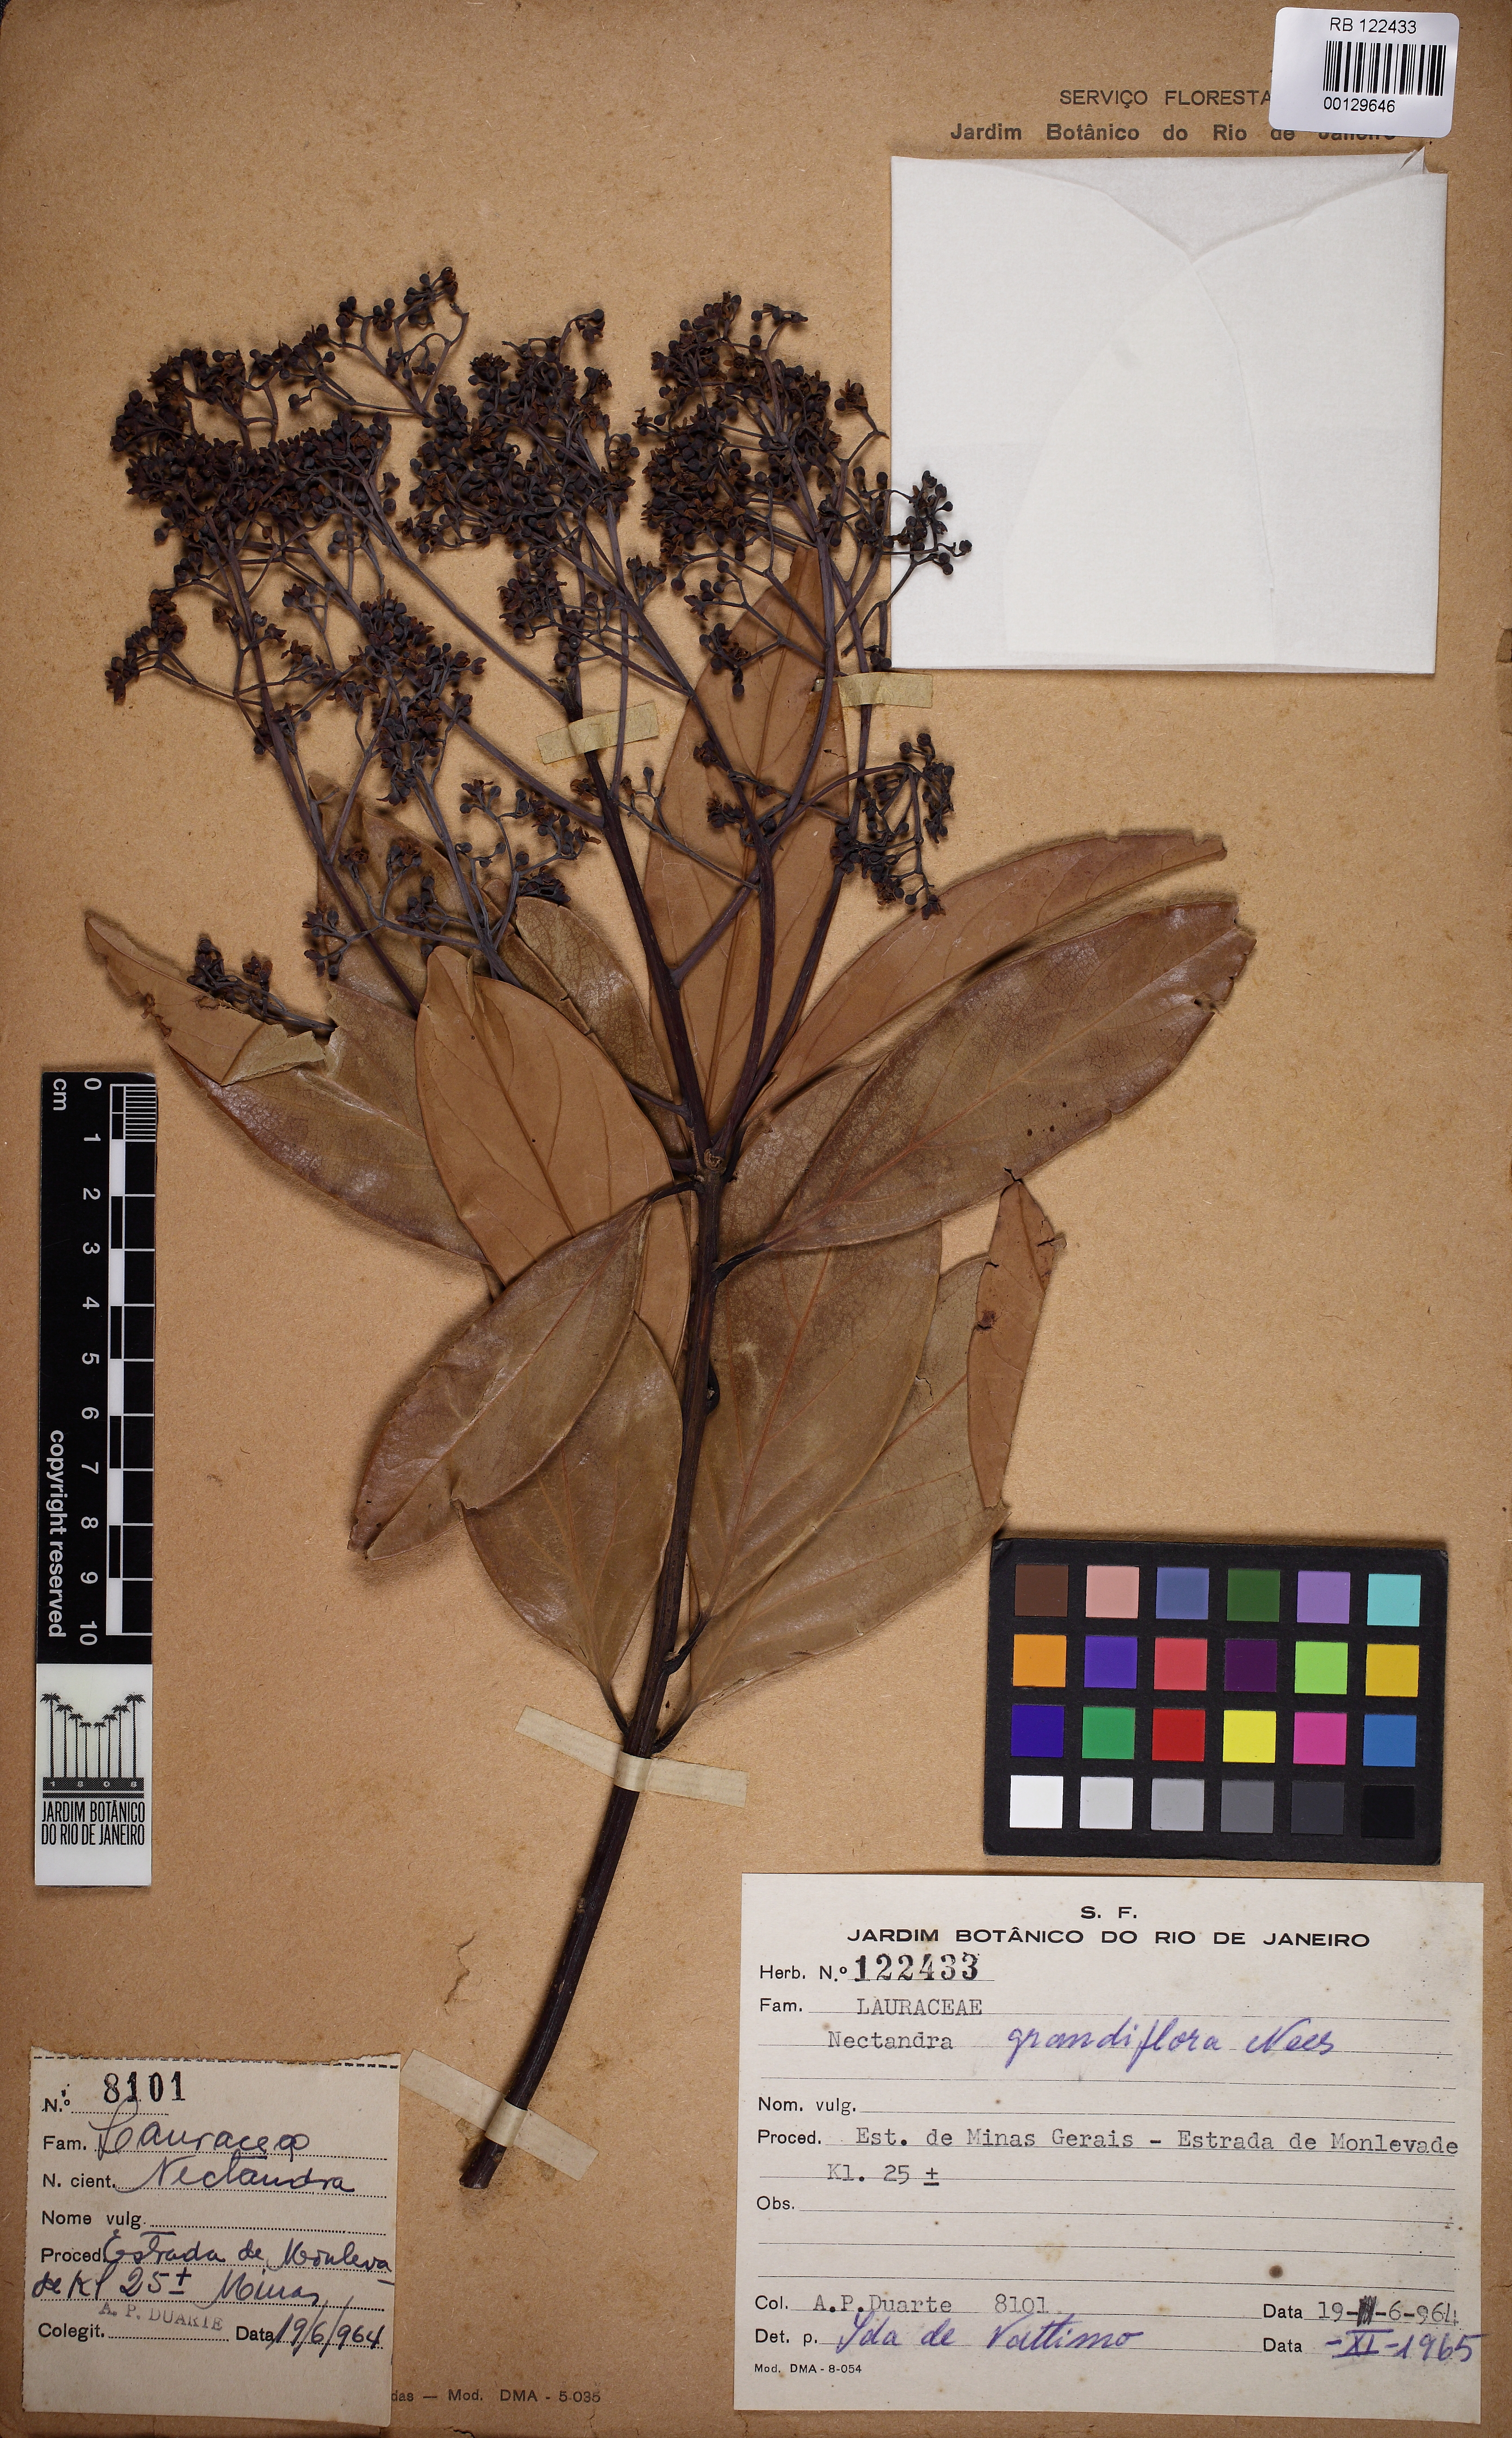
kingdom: Plantae
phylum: Tracheophyta
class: Magnoliopsida
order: Laurales
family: Lauraceae
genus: Nectandra
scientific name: Nectandra grandiflora
